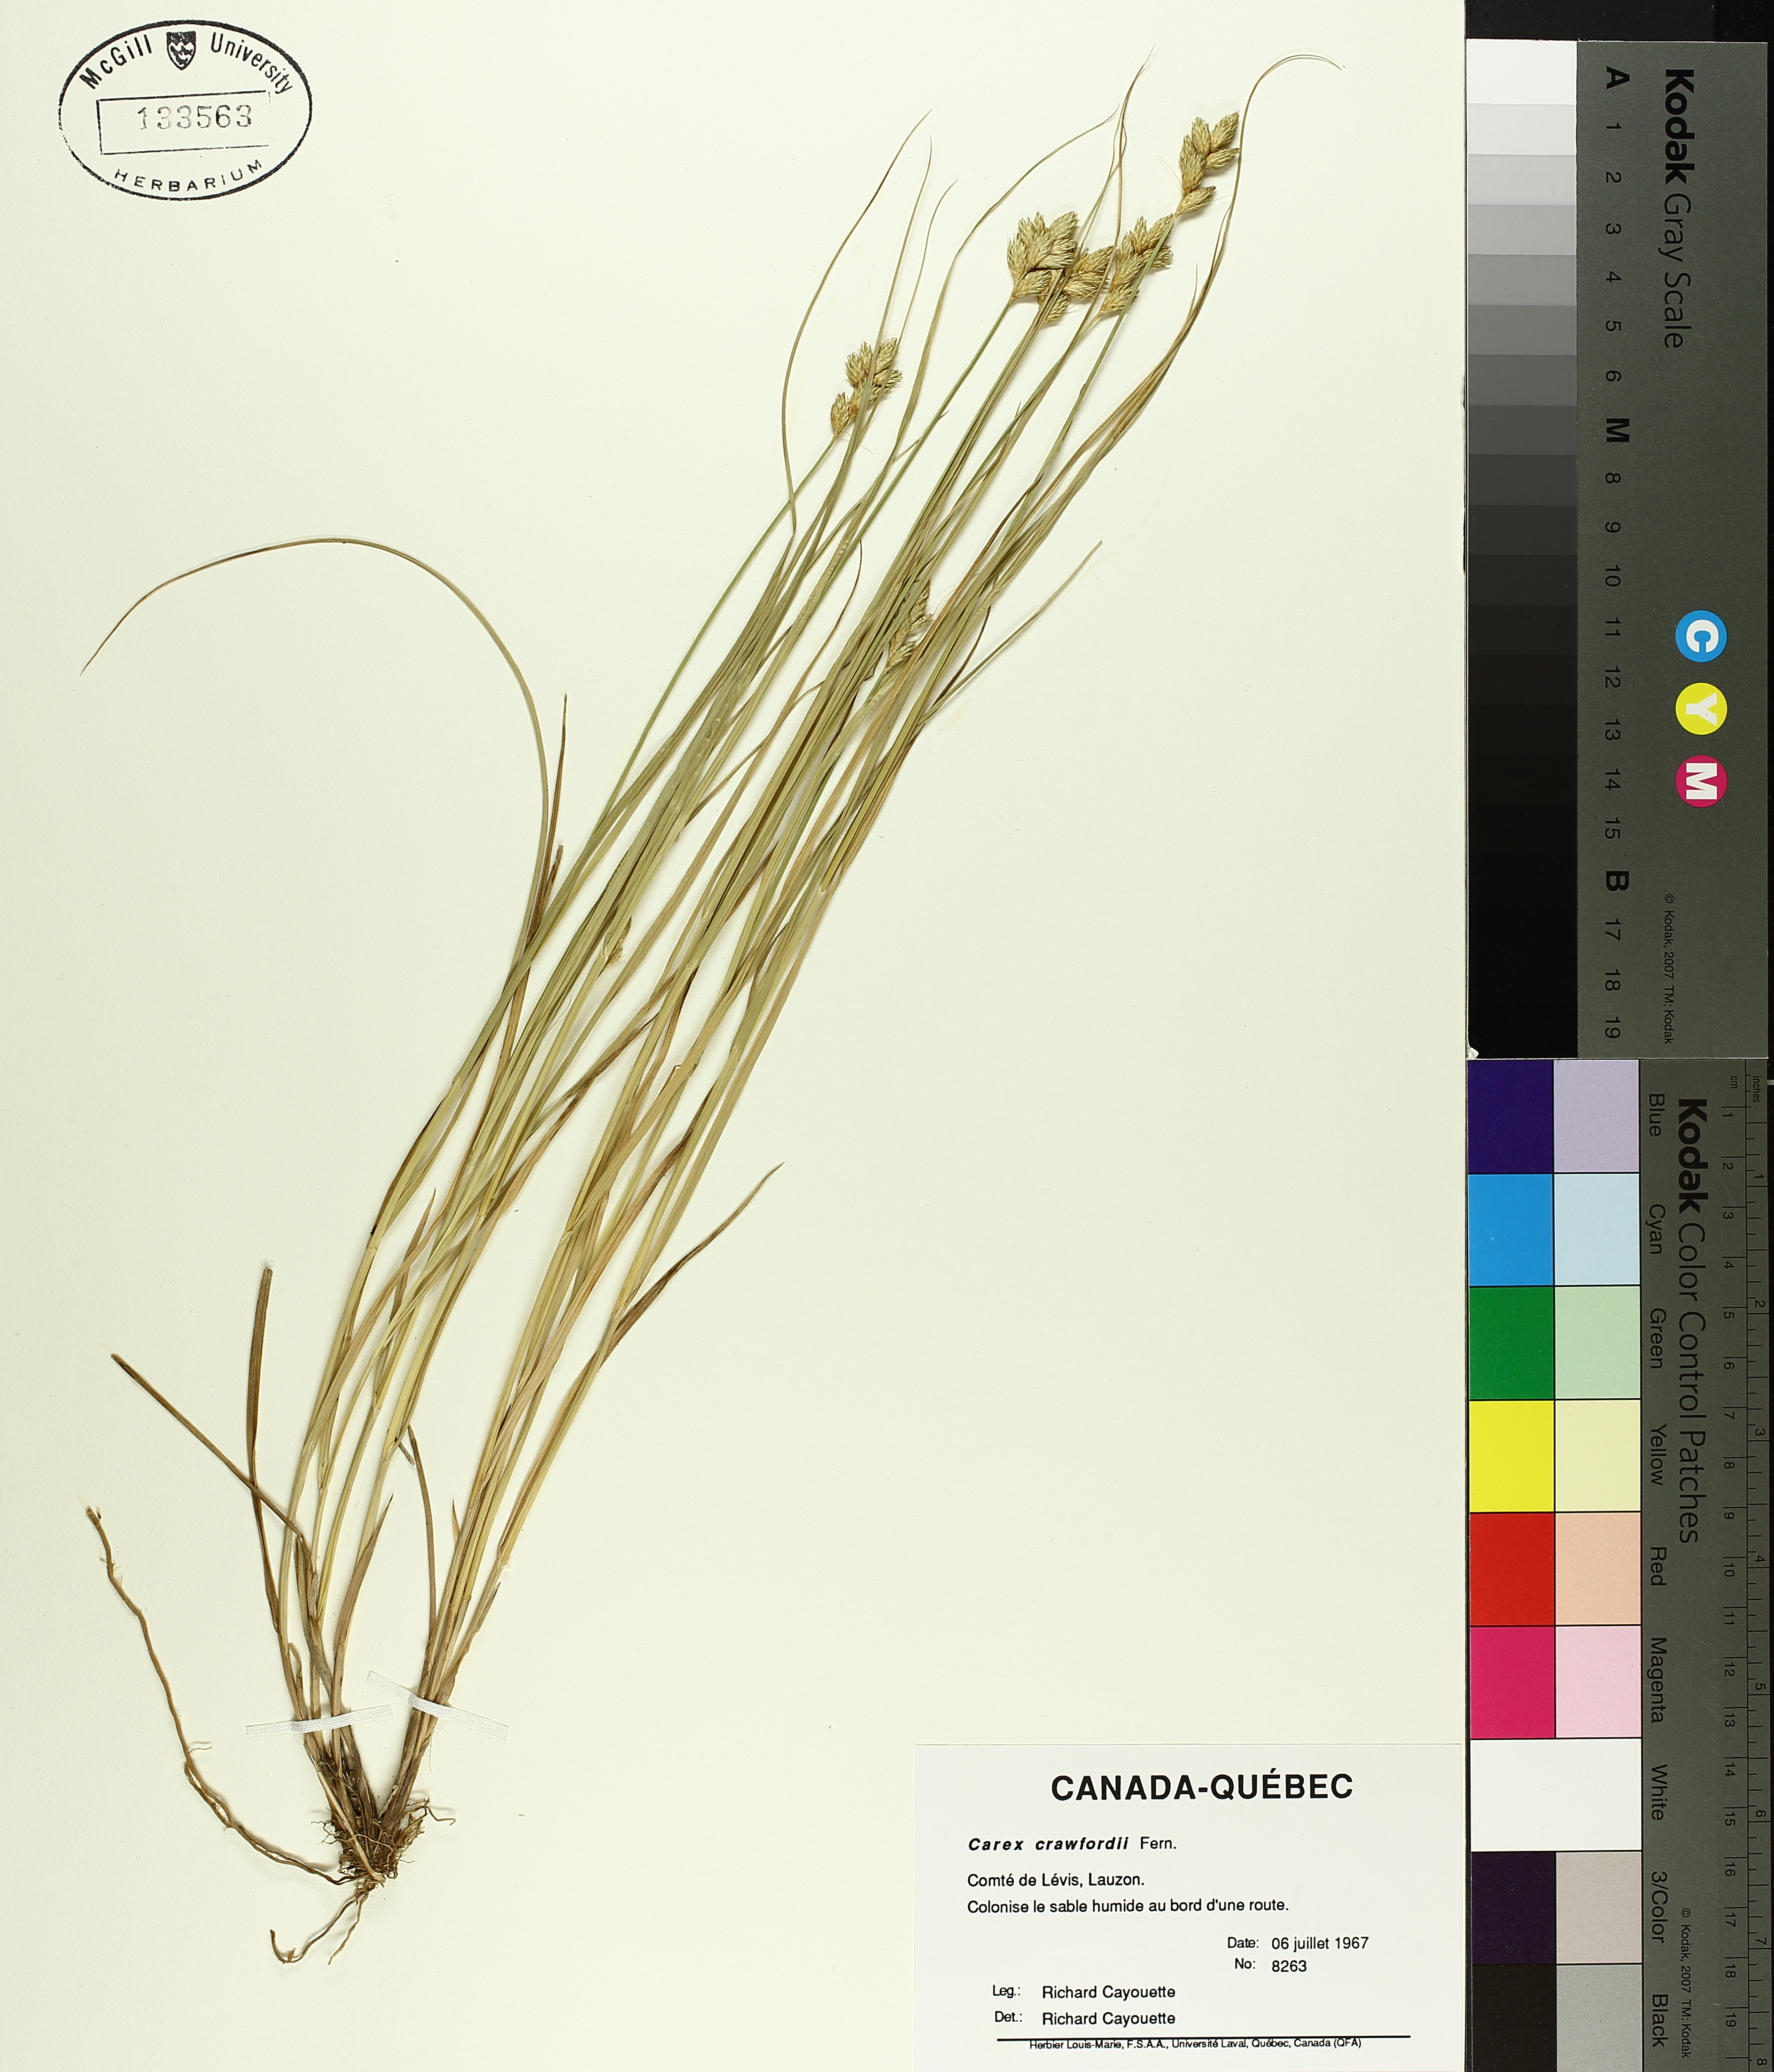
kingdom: Plantae
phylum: Tracheophyta
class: Liliopsida
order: Poales
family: Cyperaceae
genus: Carex
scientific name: Carex crawfordii
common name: Crawford's sedge
